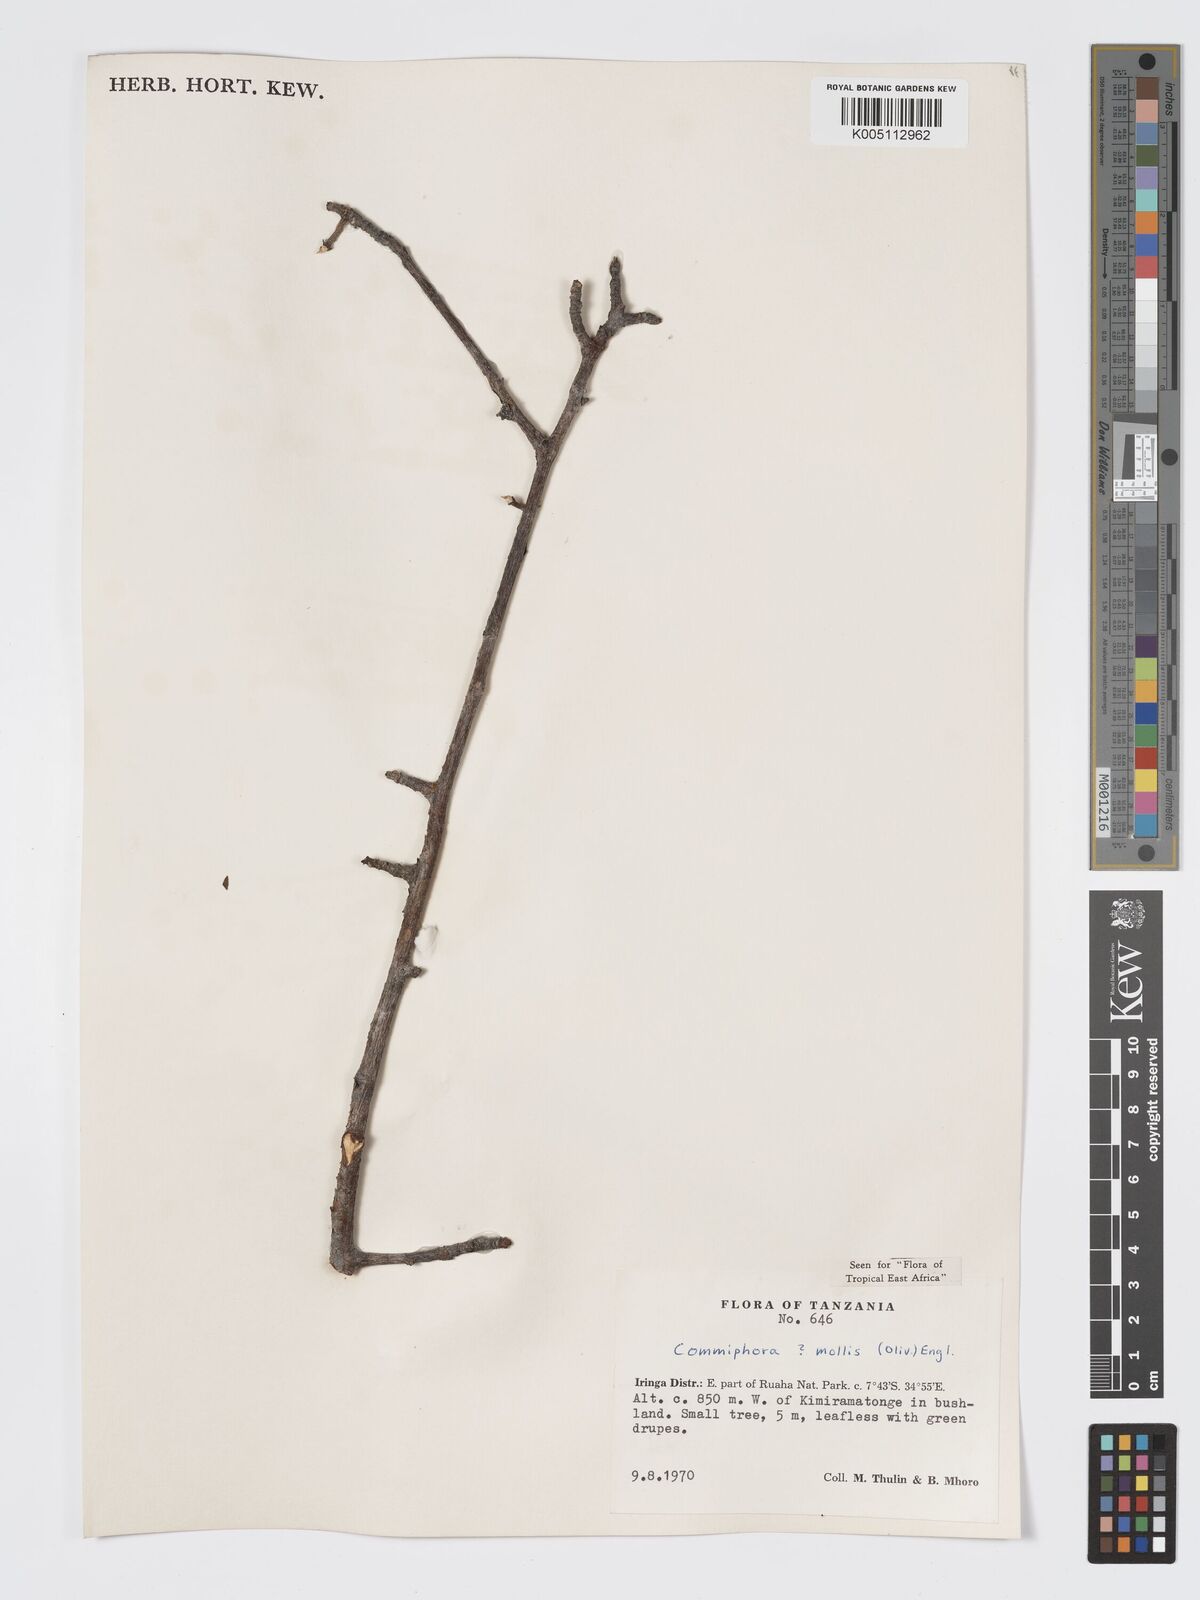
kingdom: Plantae
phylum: Tracheophyta
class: Magnoliopsida
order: Sapindales
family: Burseraceae
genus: Commiphora
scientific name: Commiphora
